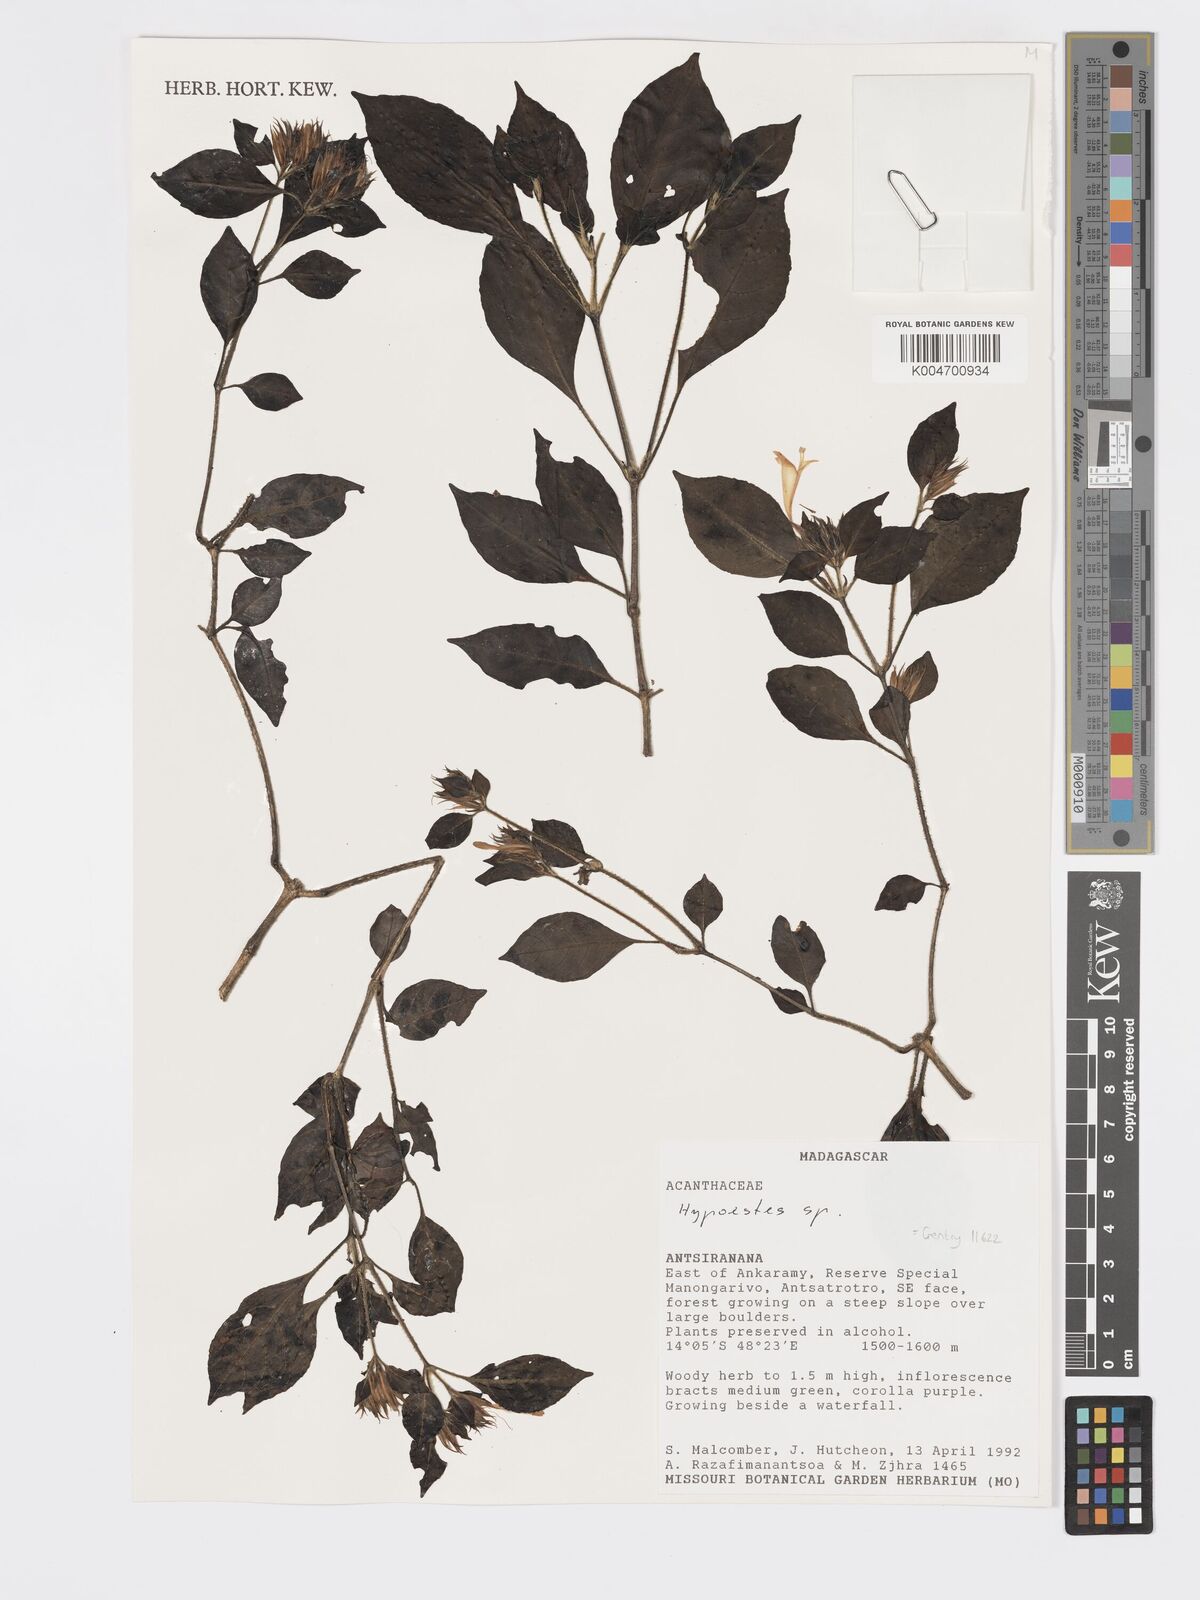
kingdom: Plantae
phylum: Tracheophyta
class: Magnoliopsida
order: Lamiales
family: Acanthaceae
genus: Hypoestes
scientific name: Hypoestes
